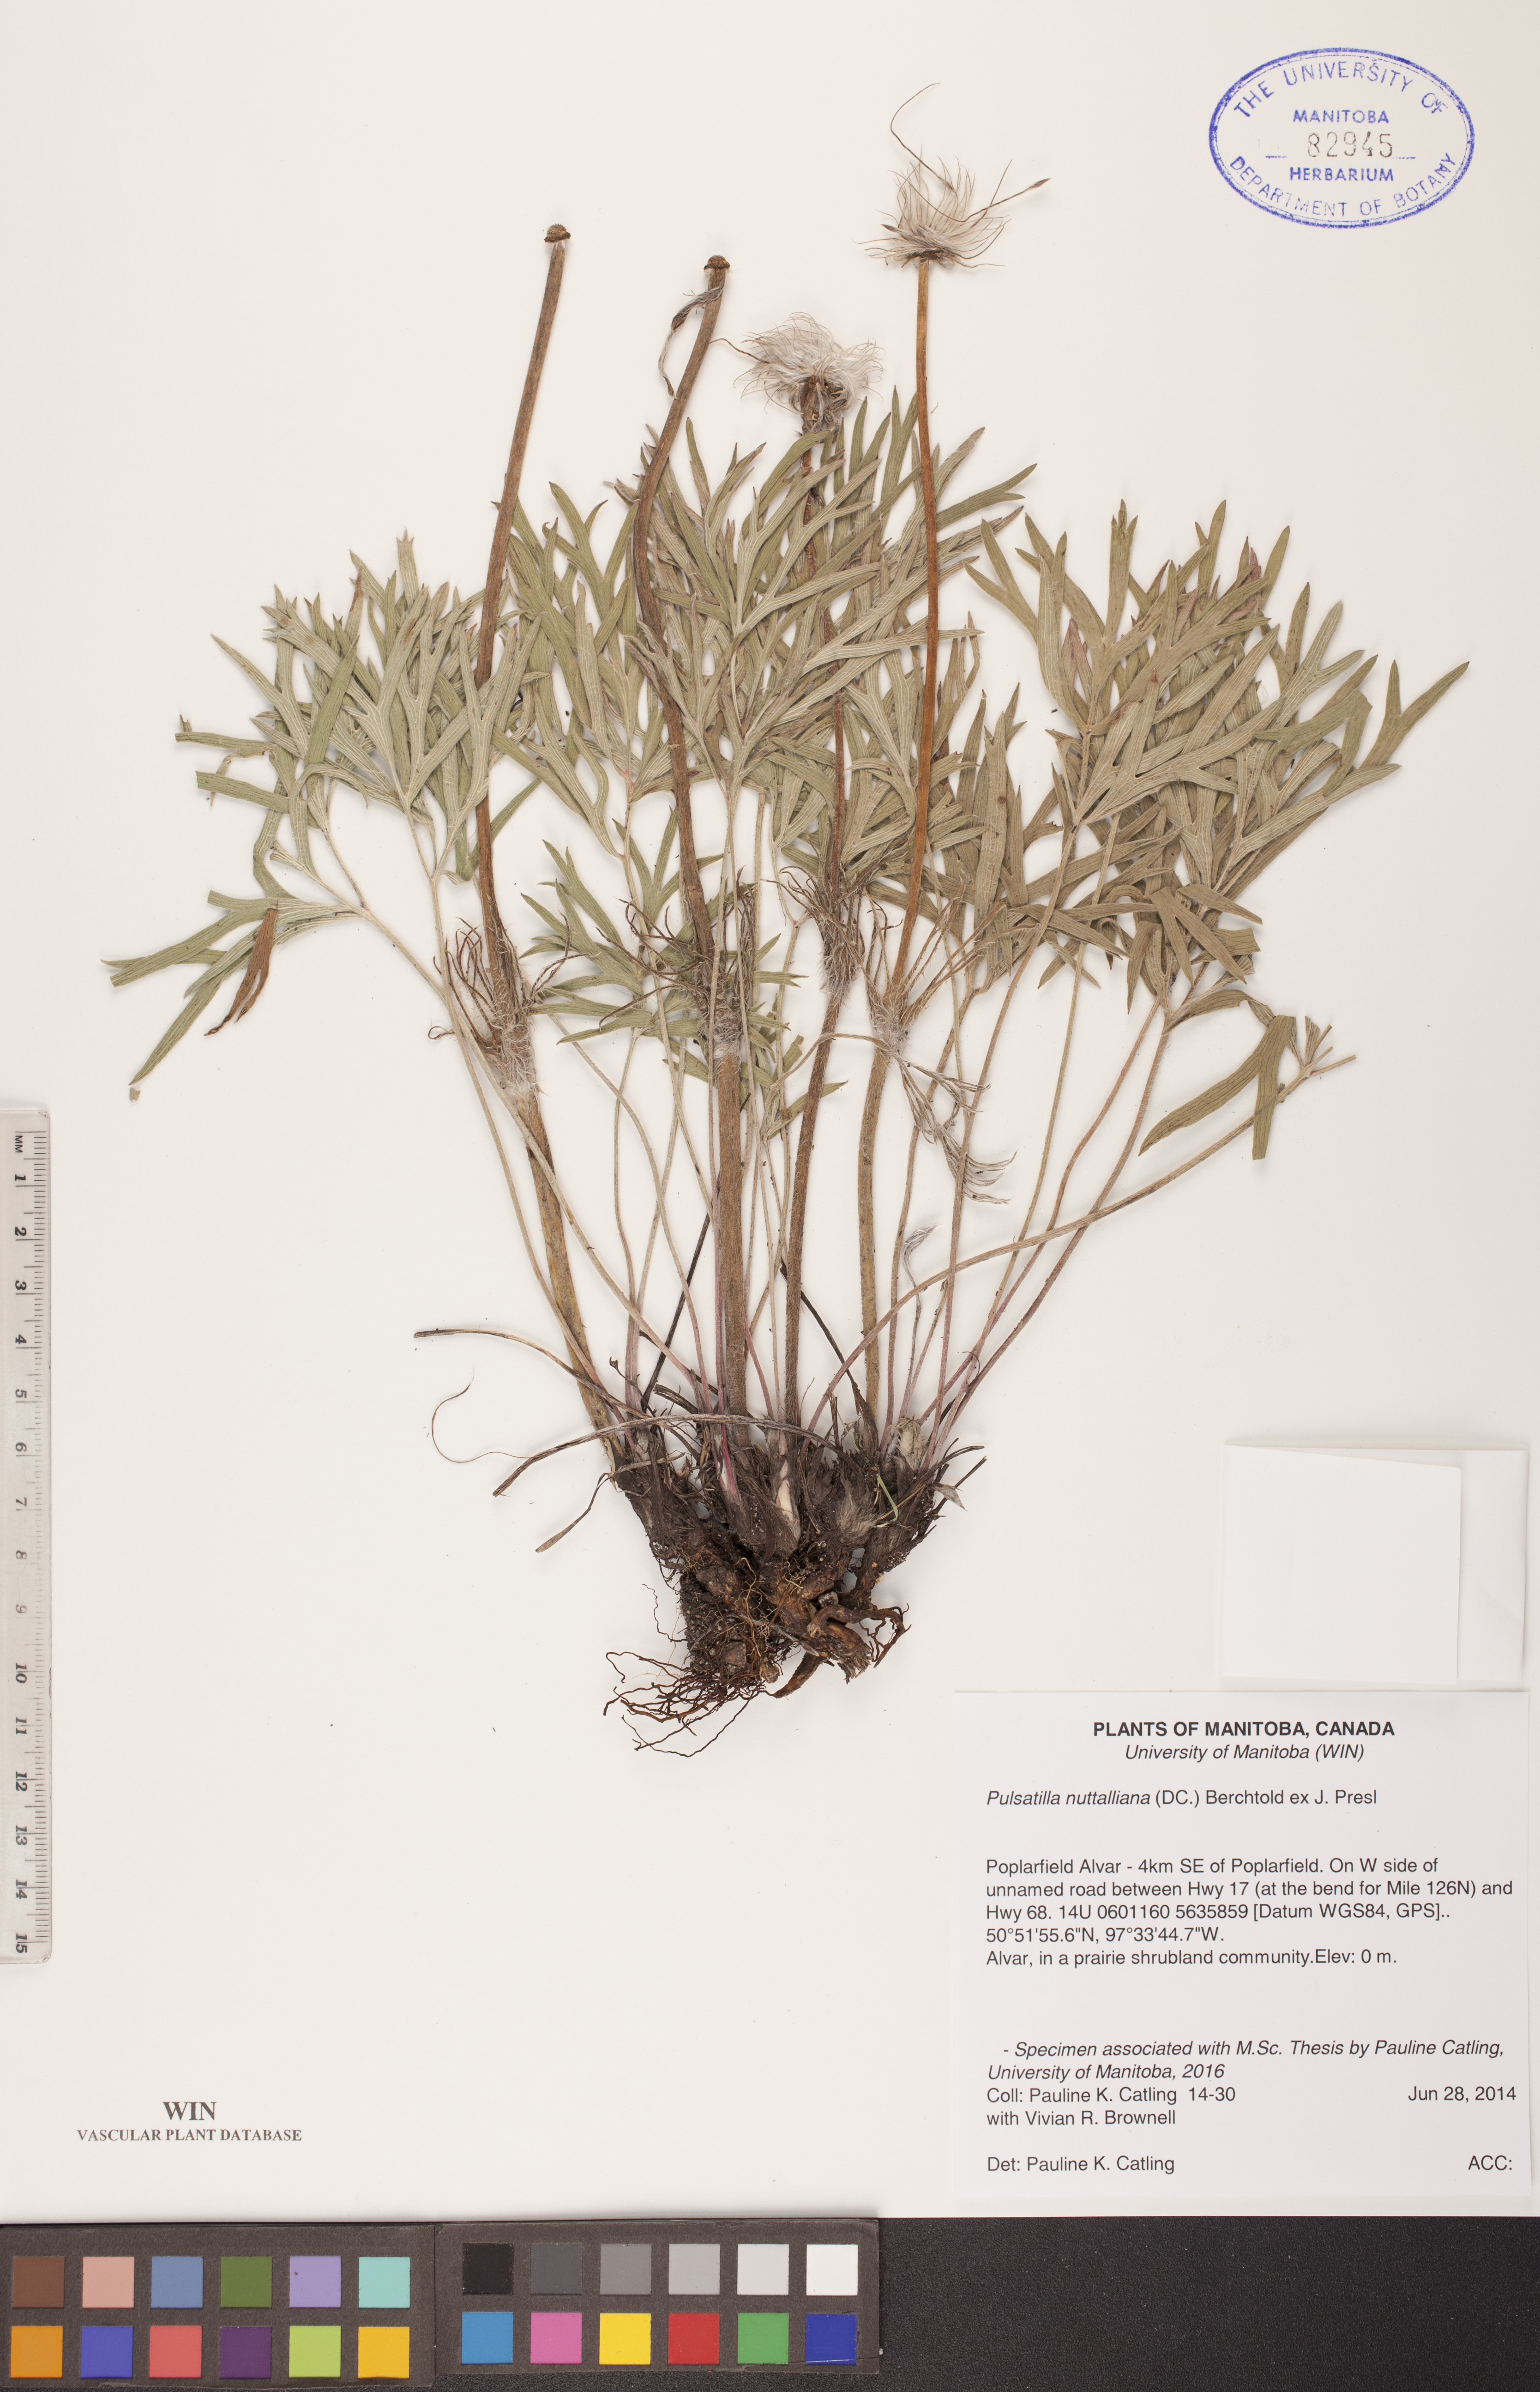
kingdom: Plantae
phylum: Tracheophyta
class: Magnoliopsida
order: Ranunculales
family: Ranunculaceae
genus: Pulsatilla
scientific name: Pulsatilla nuttalliana
